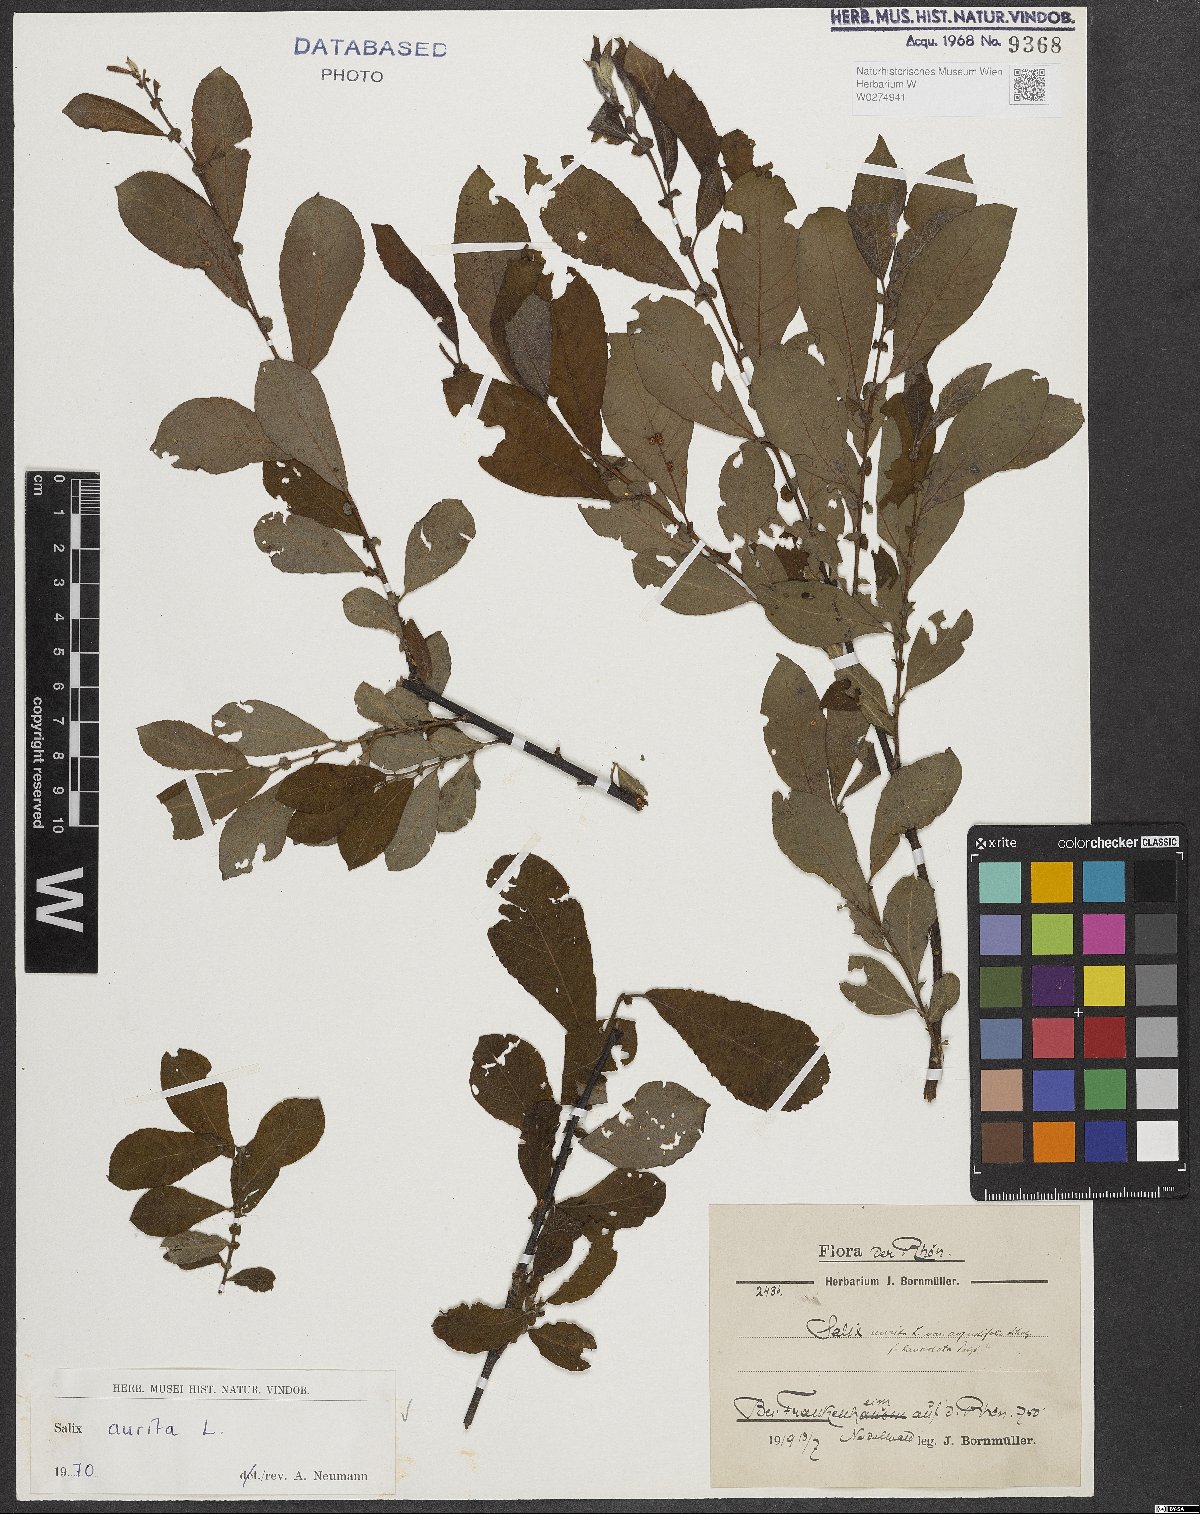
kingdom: Plantae
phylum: Tracheophyta
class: Magnoliopsida
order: Malpighiales
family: Salicaceae
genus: Salix
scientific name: Salix aurita
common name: Eared willow
